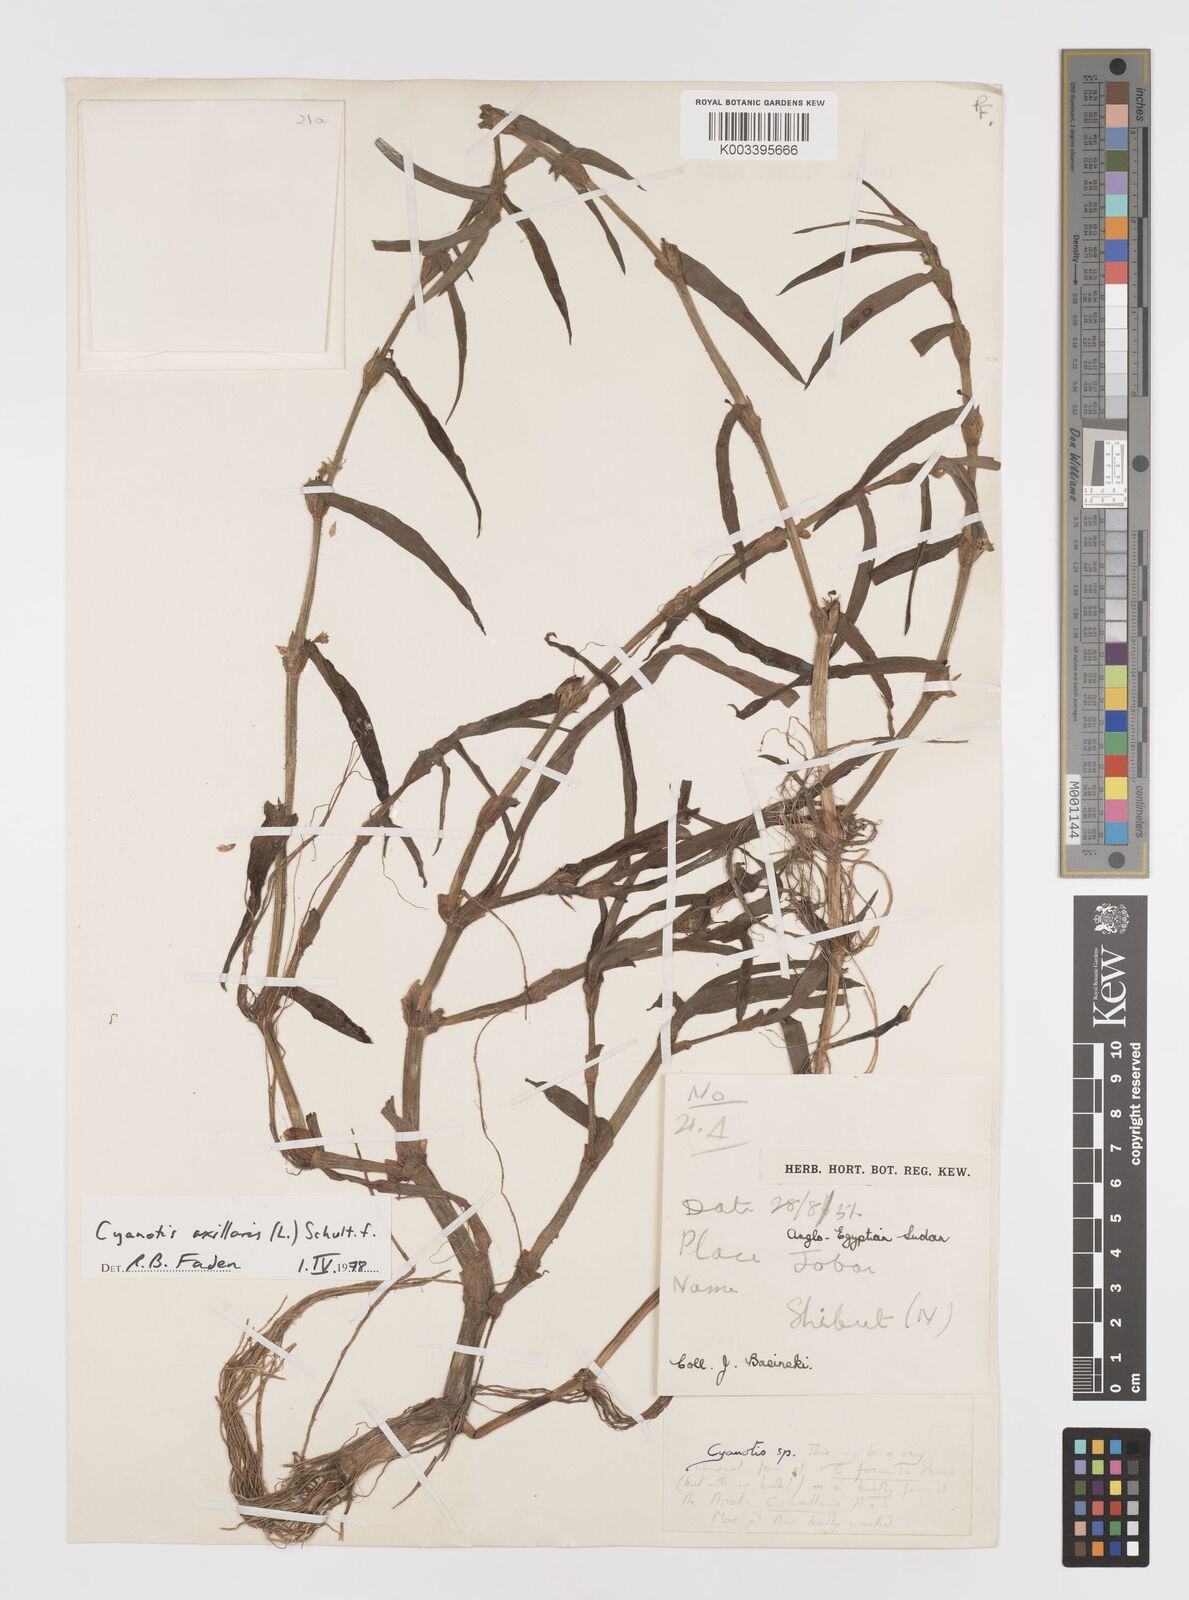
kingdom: Plantae
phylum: Tracheophyta
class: Liliopsida
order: Commelinales
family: Commelinaceae
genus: Cyanotis
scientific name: Cyanotis axillaris
